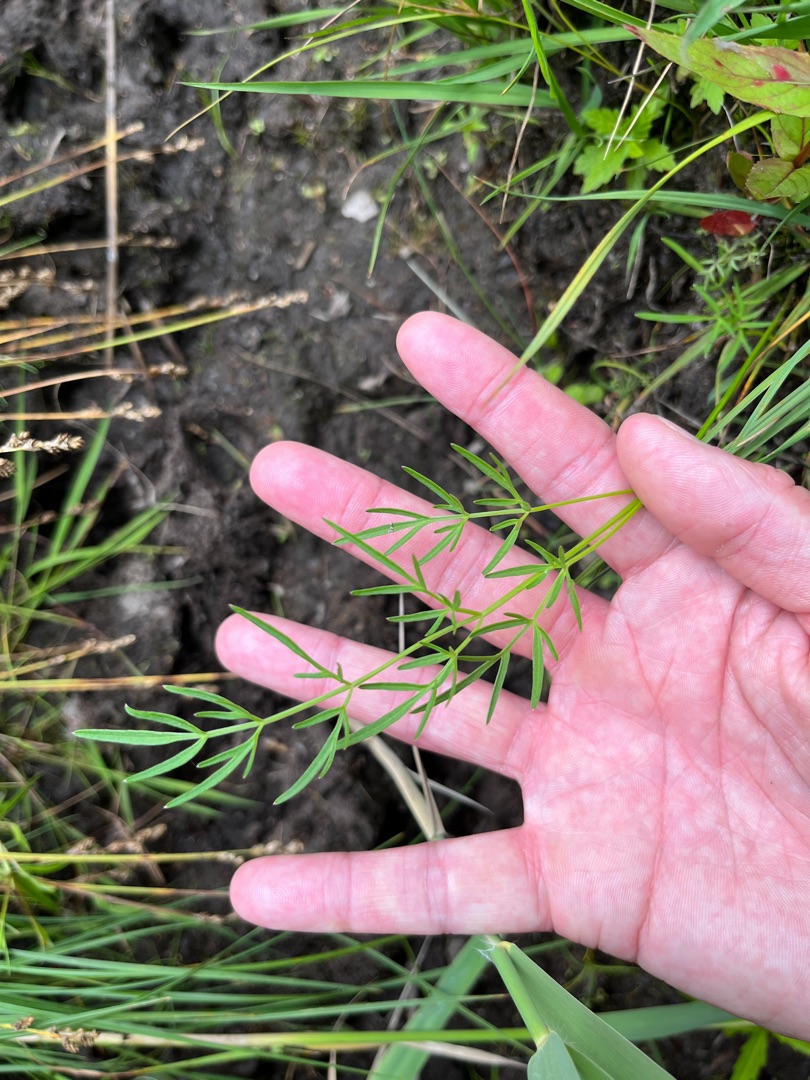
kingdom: Plantae
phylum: Tracheophyta
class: Magnoliopsida
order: Apiales
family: Apiaceae
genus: Thysselinum
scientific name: Thysselinum palustre
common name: Kær-svovlrod
